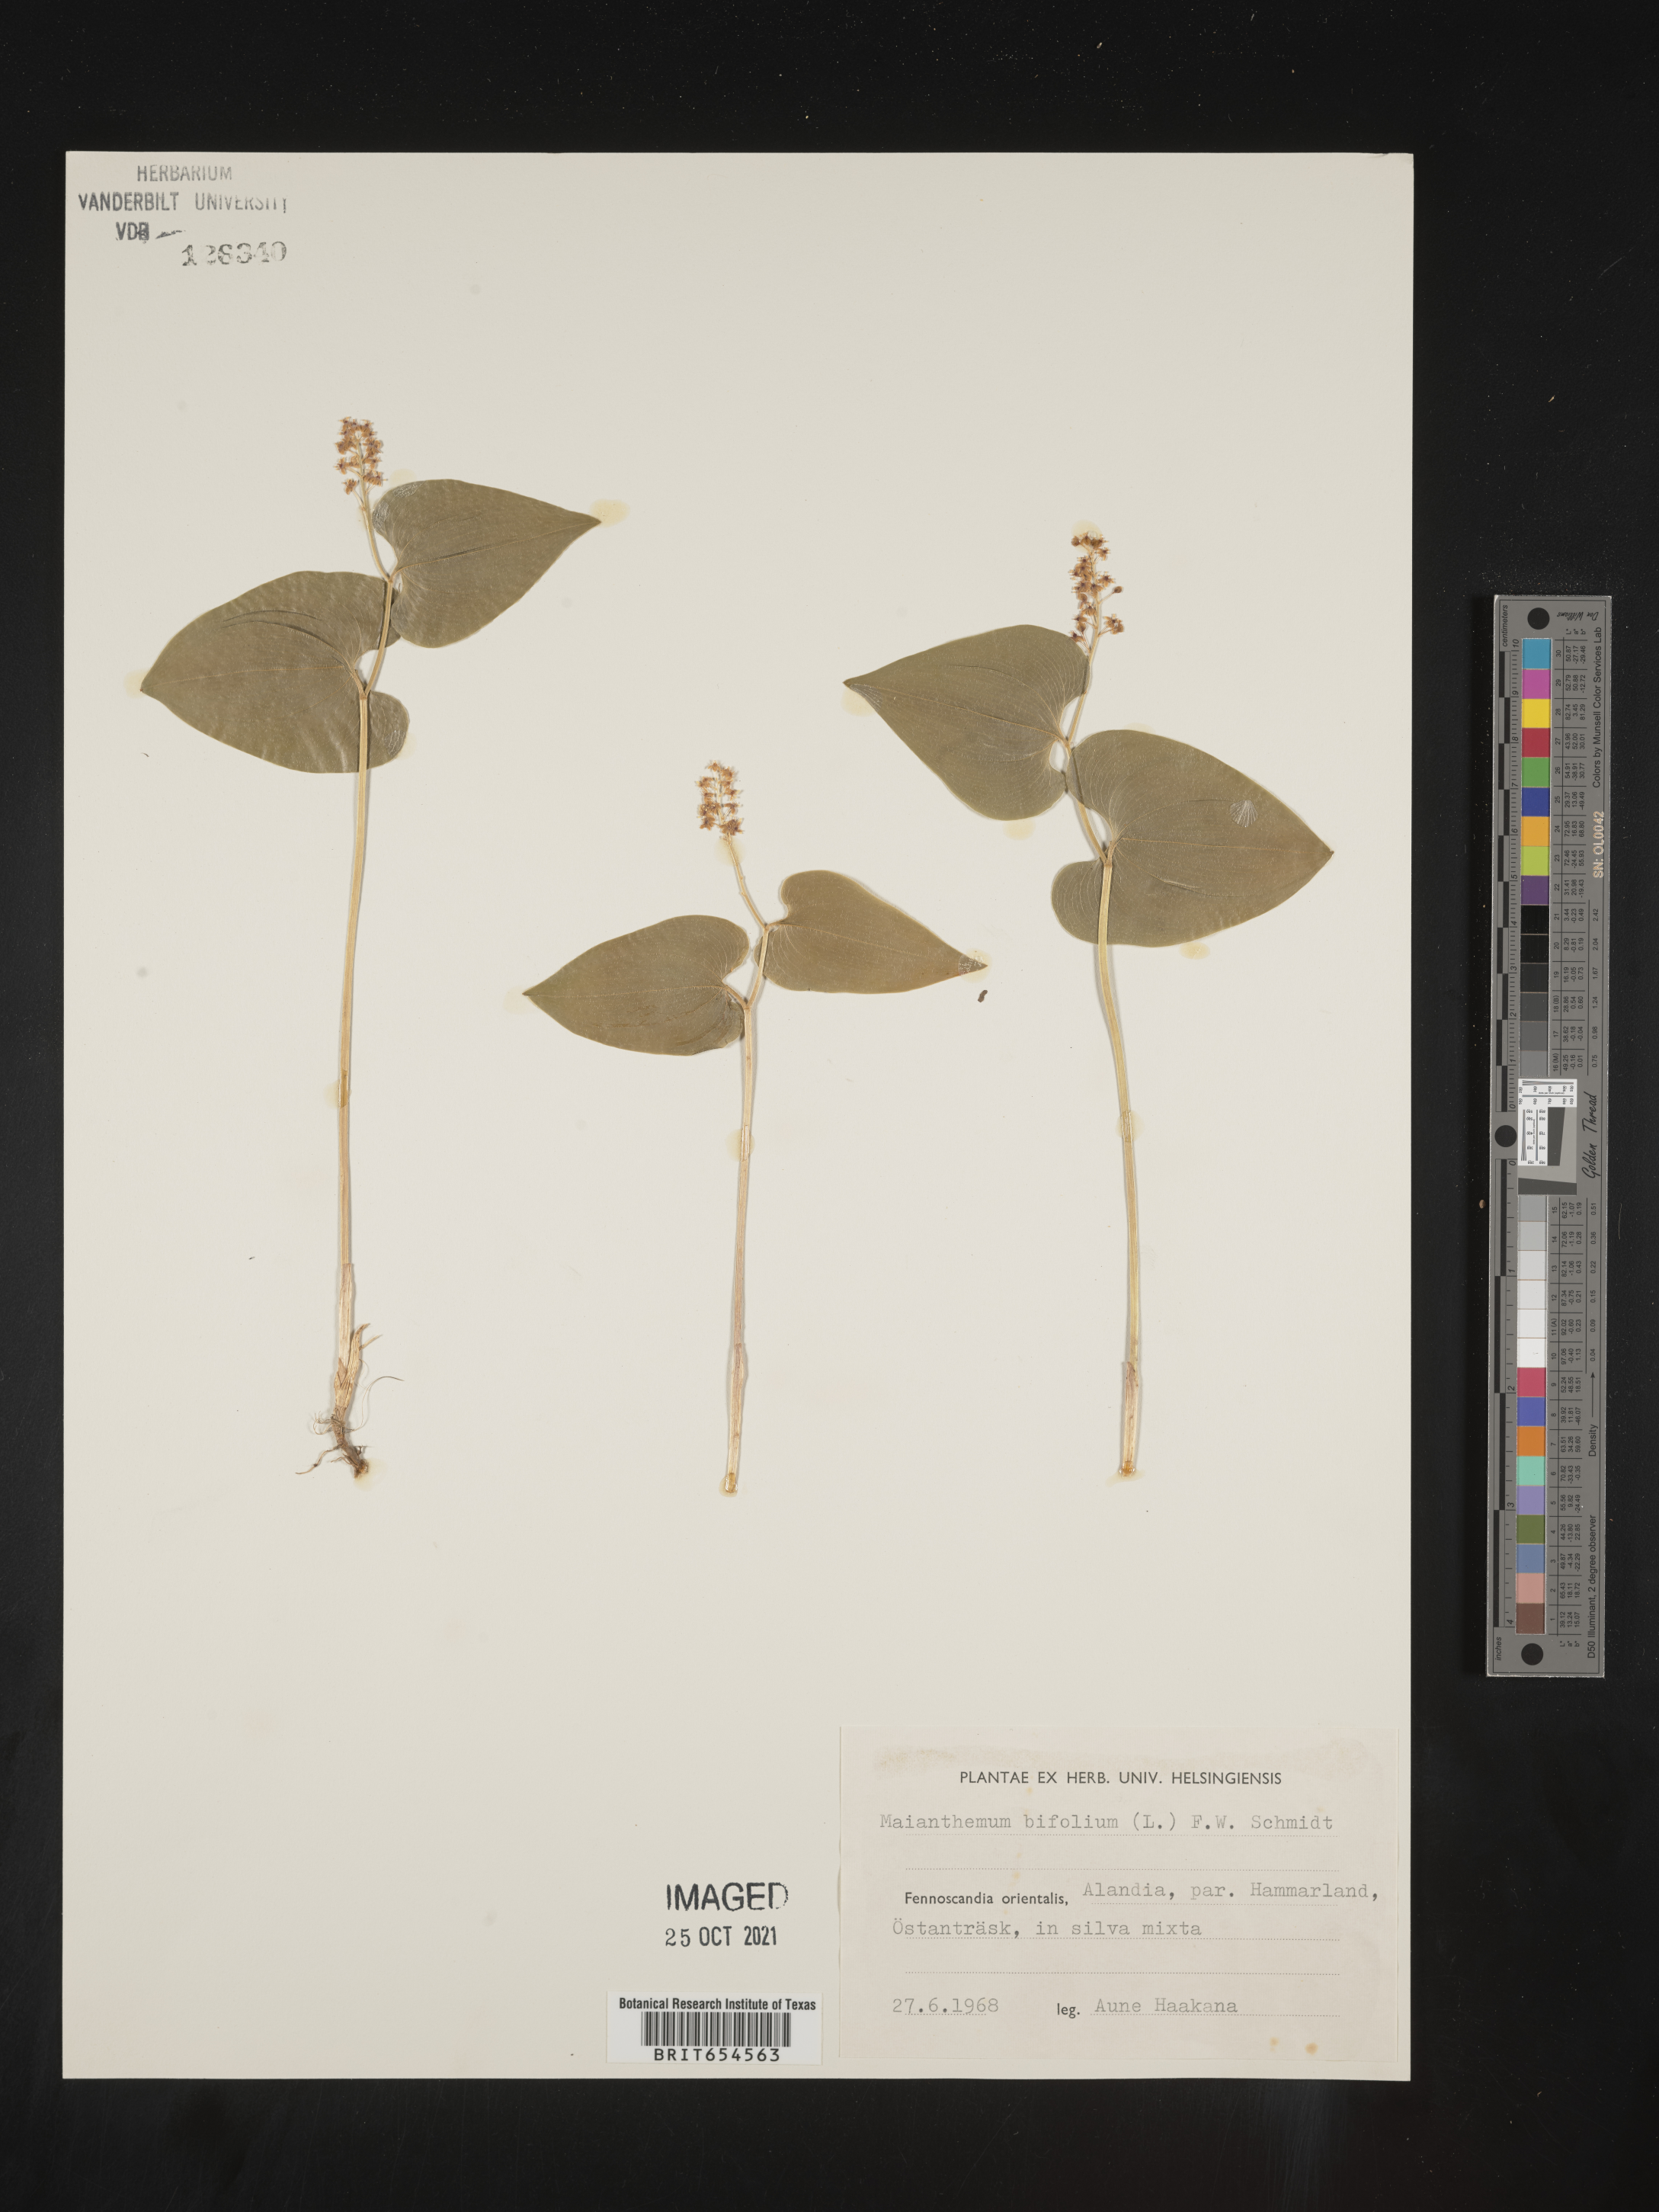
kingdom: Plantae
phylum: Tracheophyta
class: Liliopsida
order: Asparagales
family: Asparagaceae
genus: Maianthemum
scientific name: Maianthemum bifolium
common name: May lily
